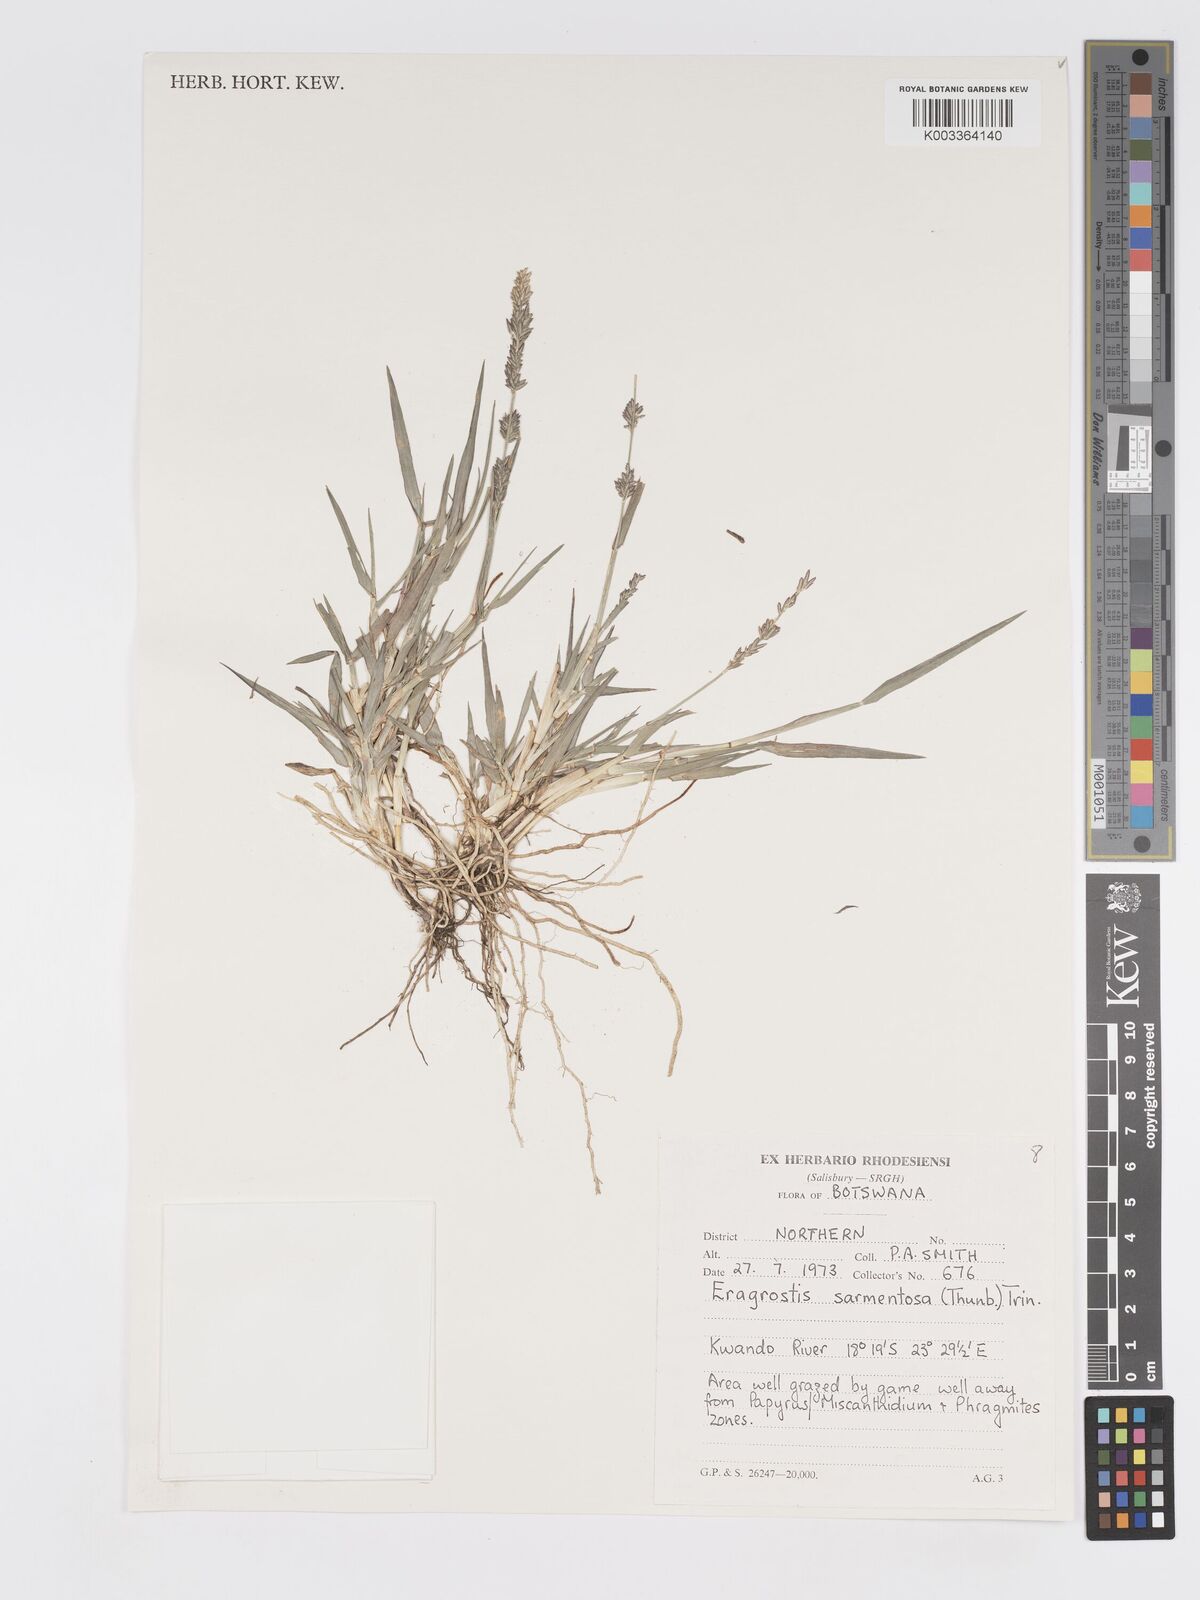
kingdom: Plantae
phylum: Tracheophyta
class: Liliopsida
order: Poales
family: Poaceae
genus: Eragrostis
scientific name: Eragrostis sarmentosa
